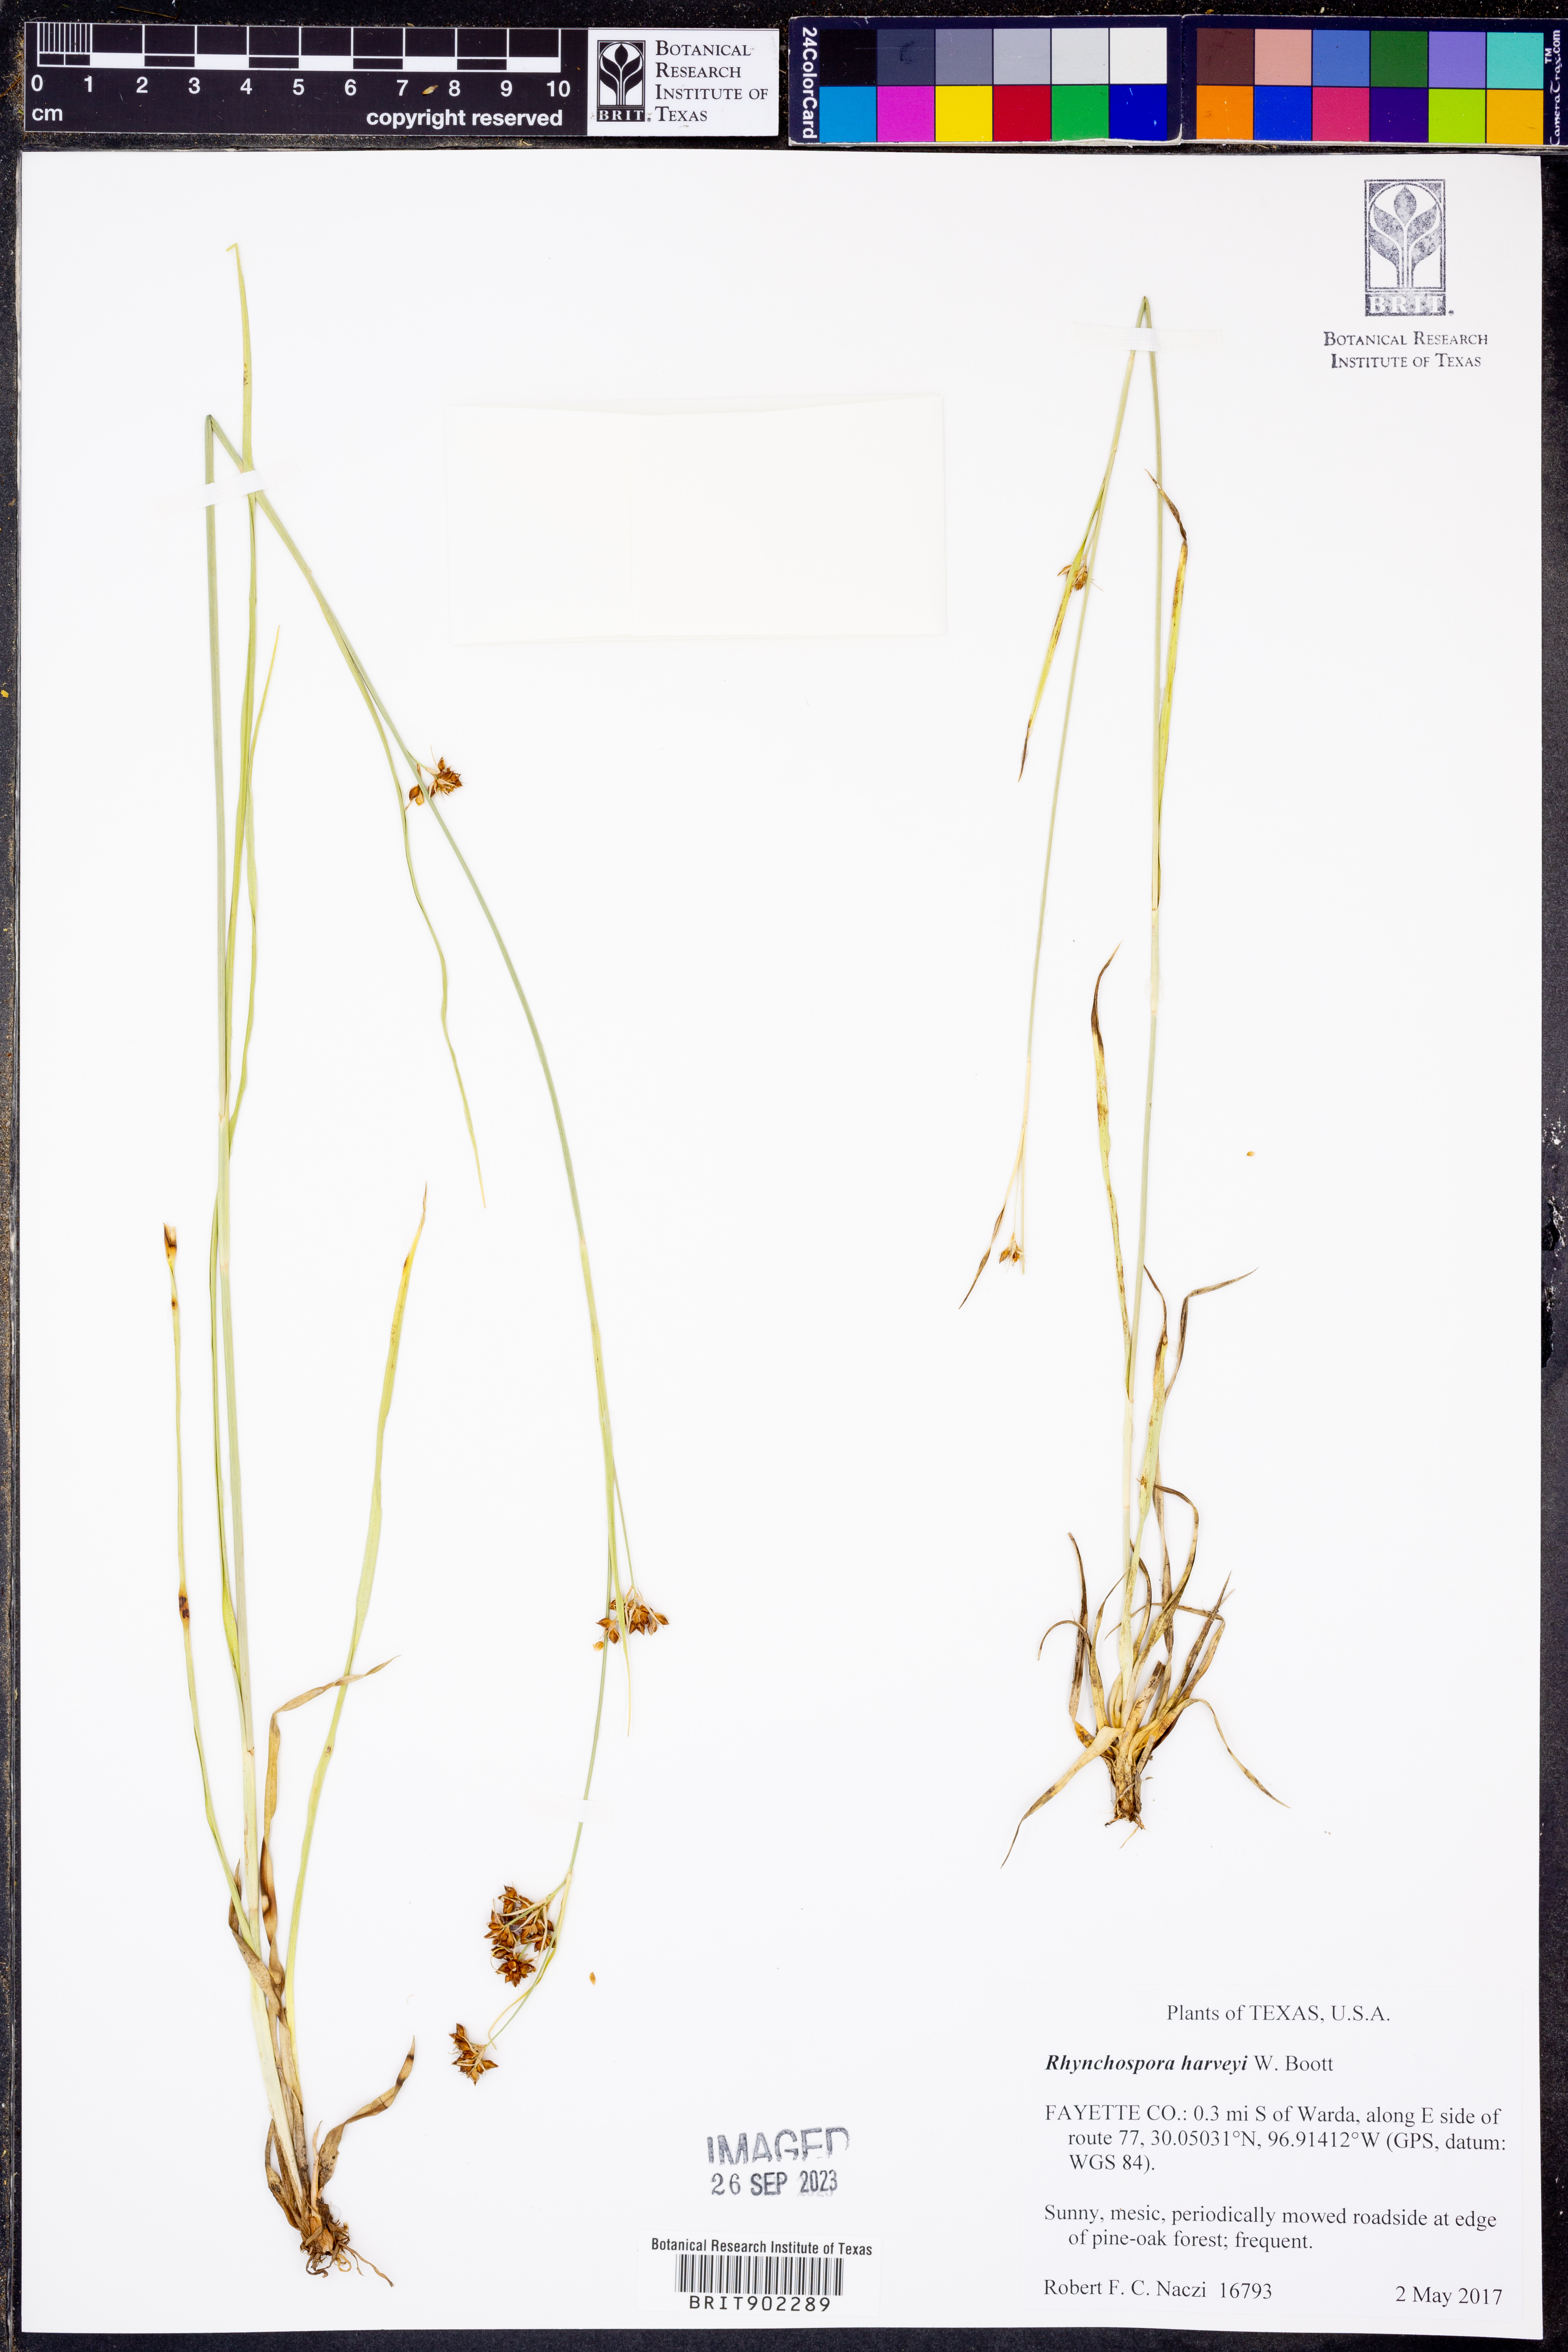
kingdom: Plantae
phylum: Tracheophyta
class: Liliopsida
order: Poales
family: Cyperaceae
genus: Rhynchospora
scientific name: Rhynchospora harveyi
